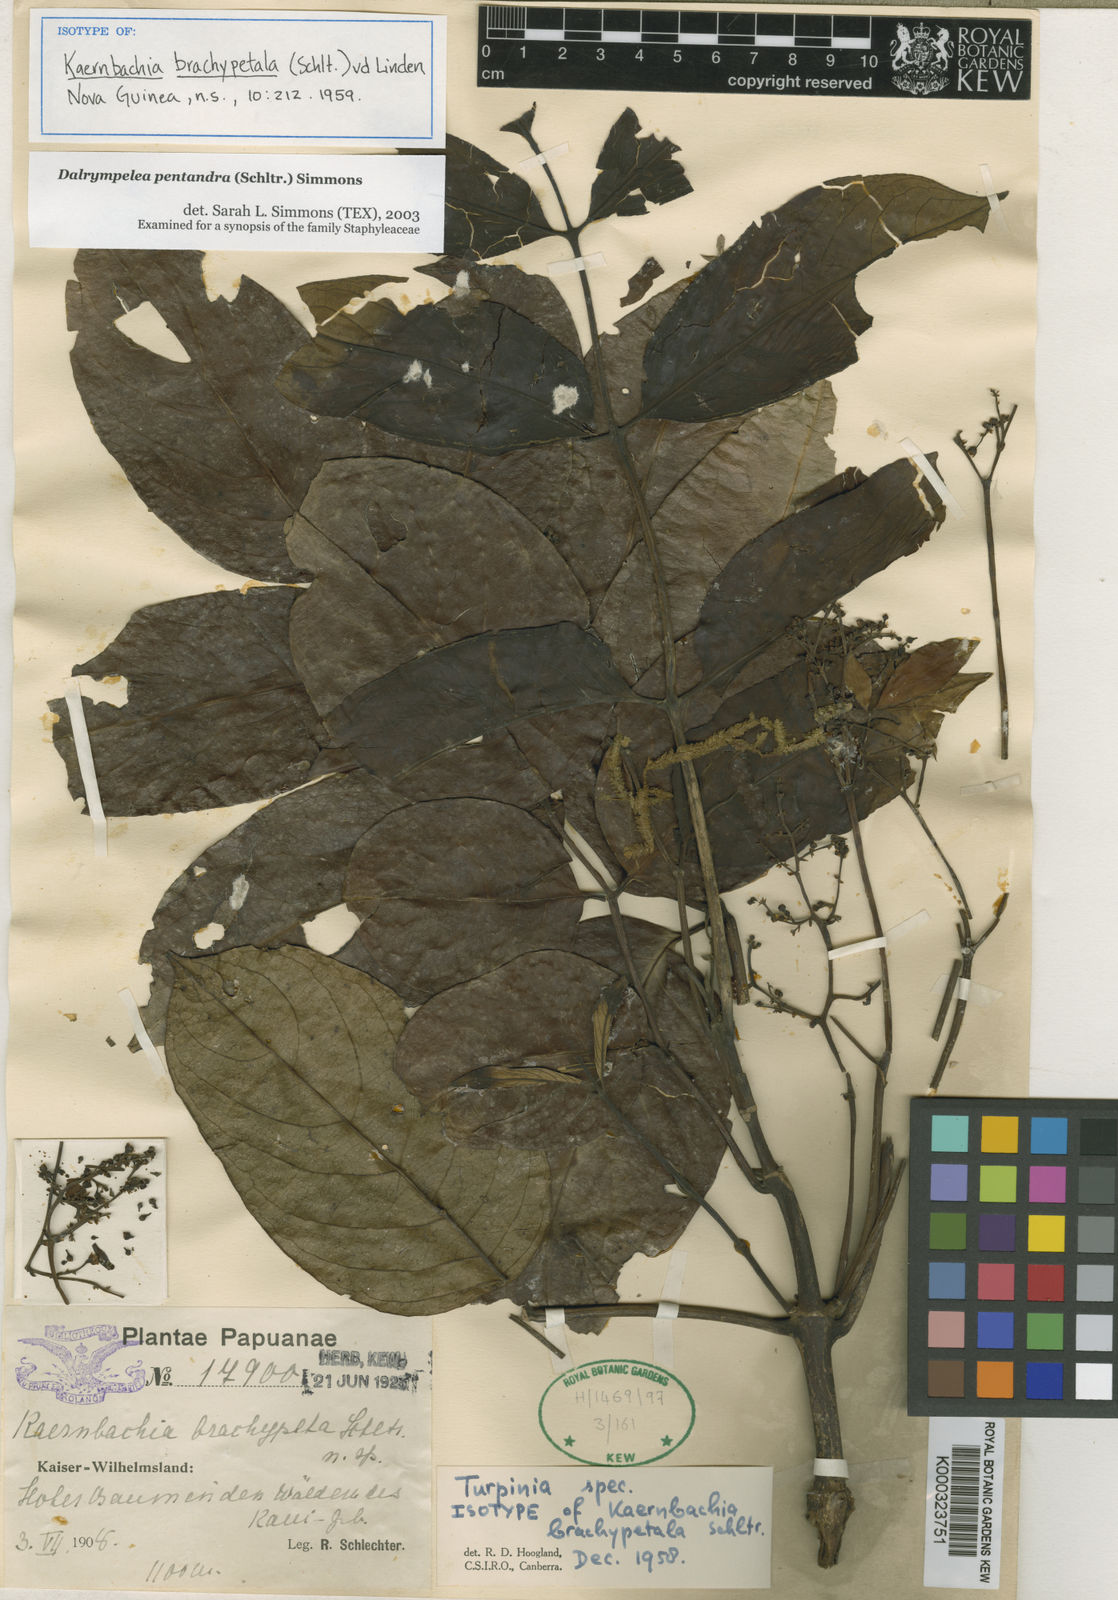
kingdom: Plantae
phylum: Tracheophyta
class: Magnoliopsida
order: Crossosomatales
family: Staphyleaceae
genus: Turpinia
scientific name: Turpinia
